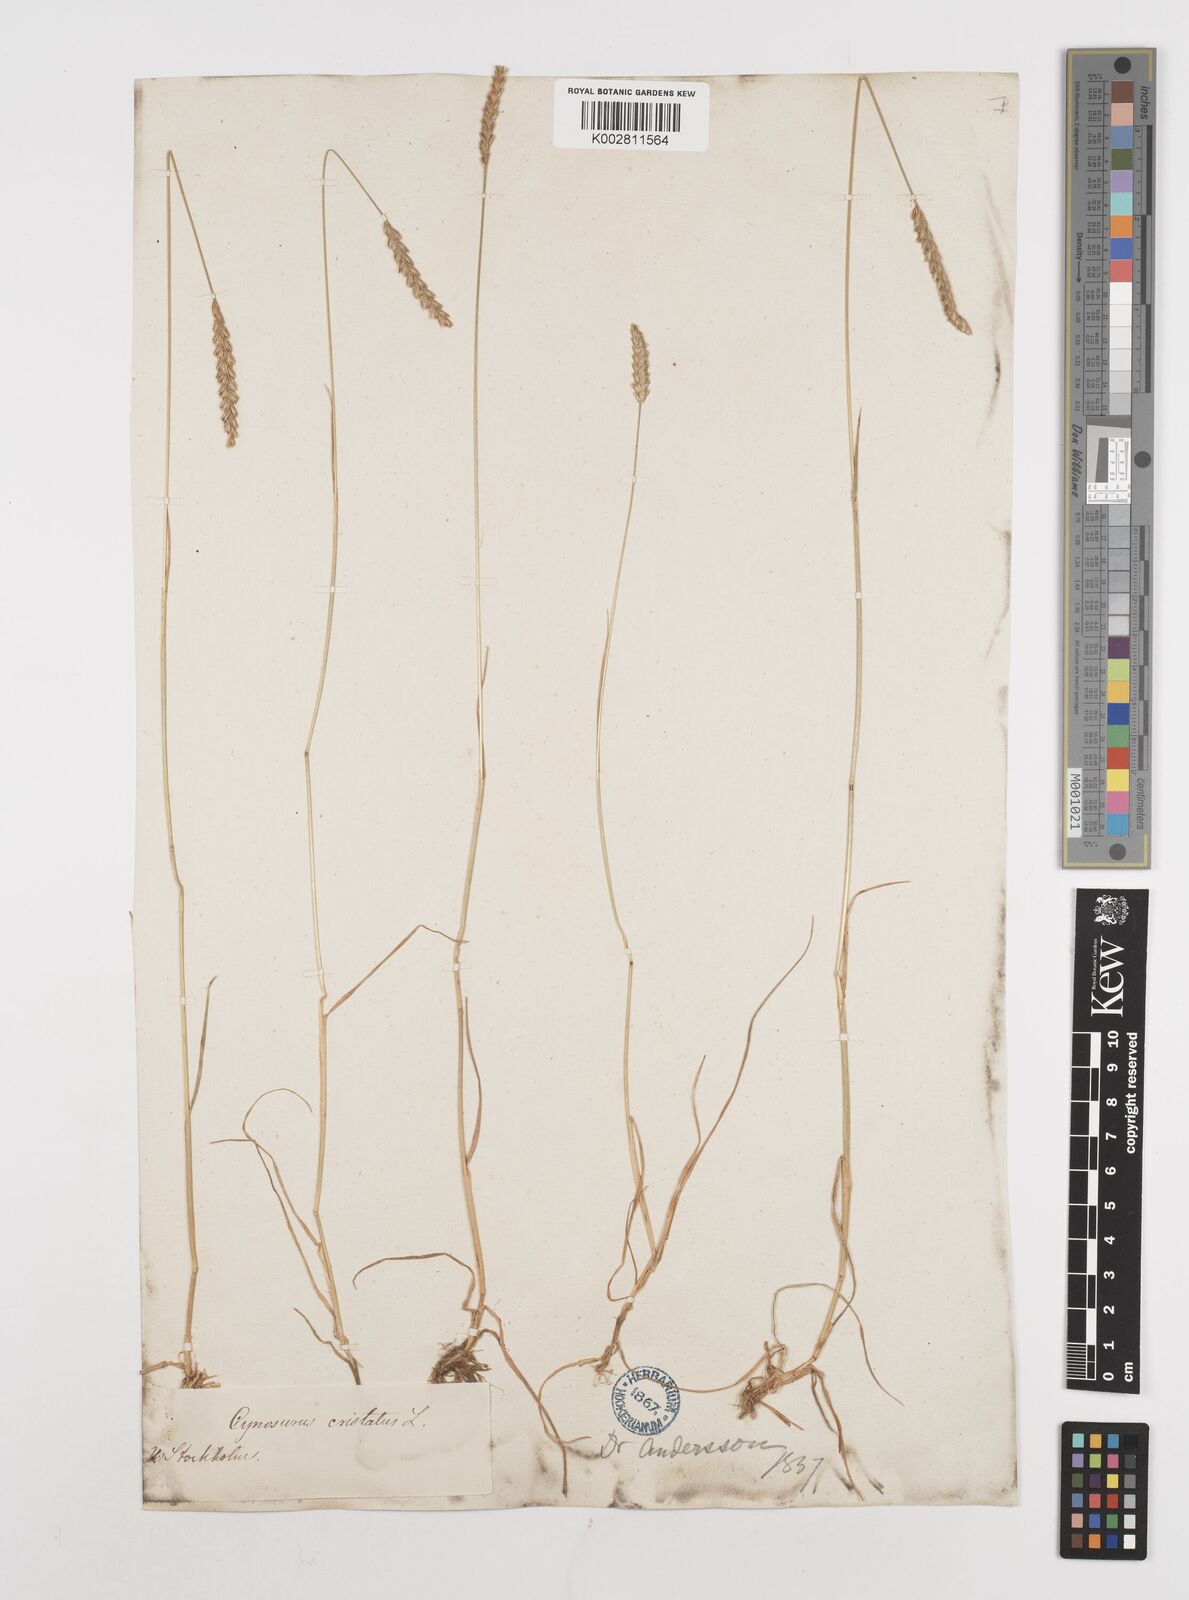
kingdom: Plantae
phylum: Tracheophyta
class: Liliopsida
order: Poales
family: Poaceae
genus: Cynosurus
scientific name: Cynosurus cristatus
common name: Crested dog's-tail
